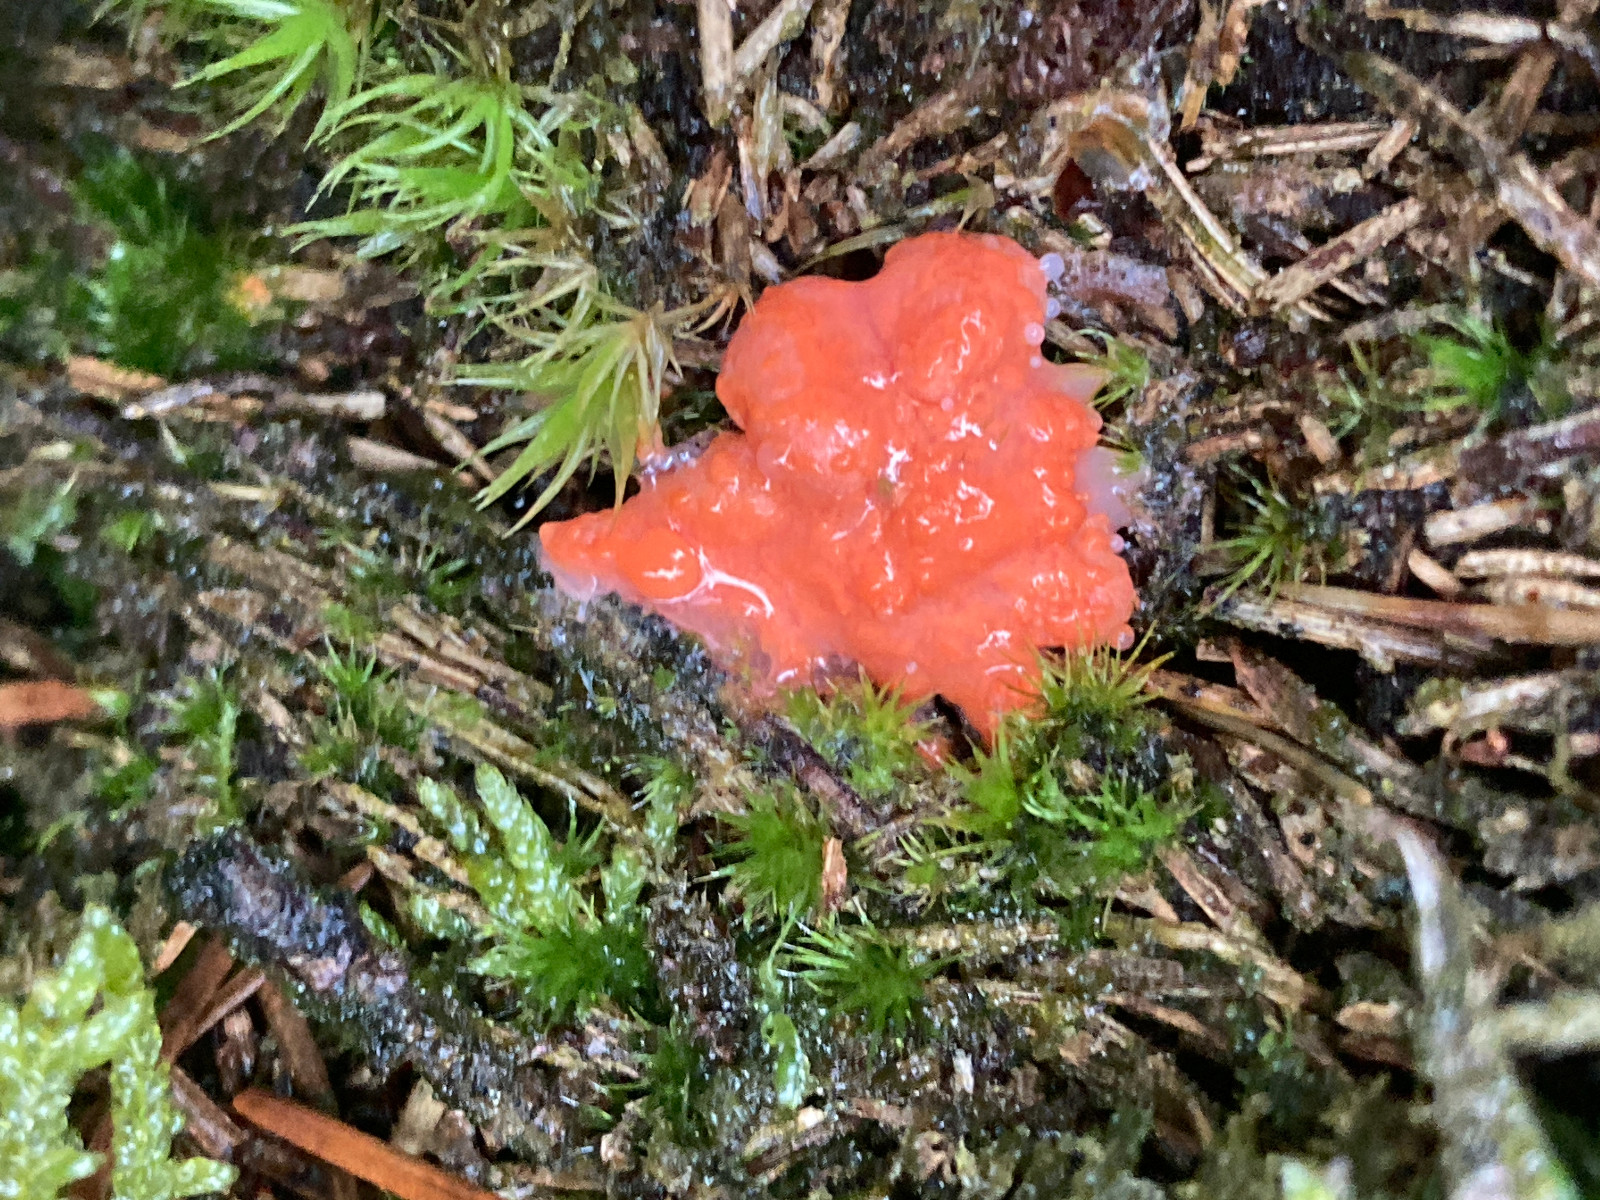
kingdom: Protozoa
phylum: Mycetozoa
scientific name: Mycetozoa
